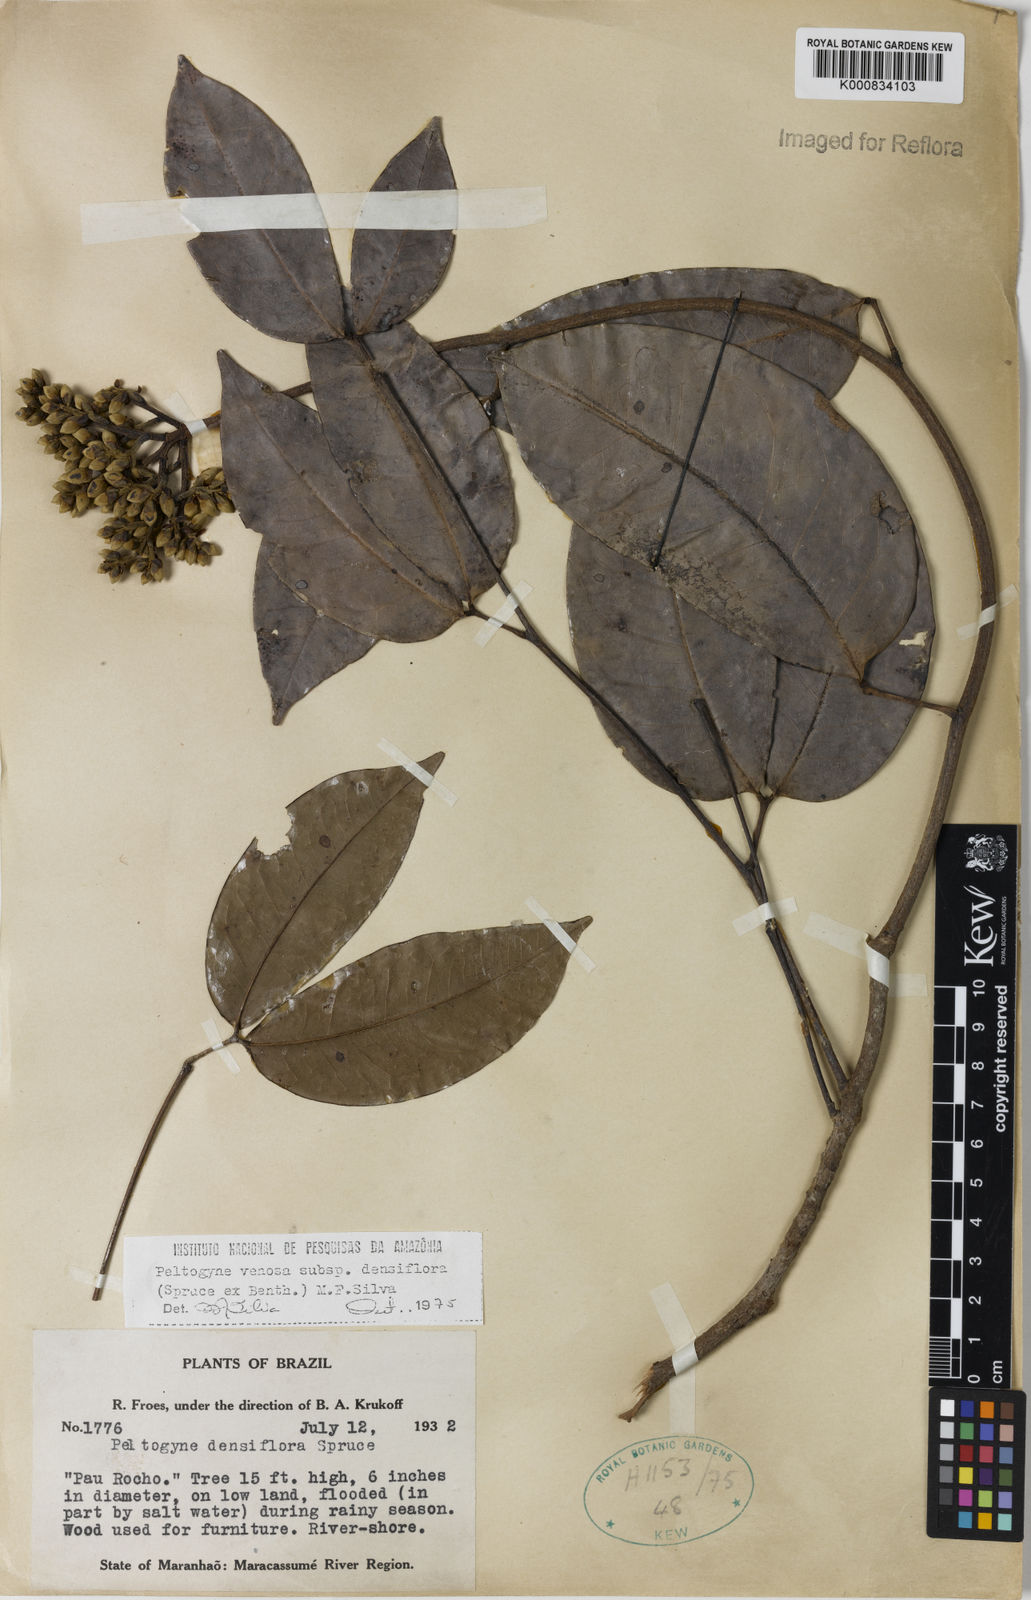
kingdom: Plantae
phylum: Tracheophyta
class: Magnoliopsida
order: Fabales
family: Fabaceae
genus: Peltogyne
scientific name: Peltogyne venosa
